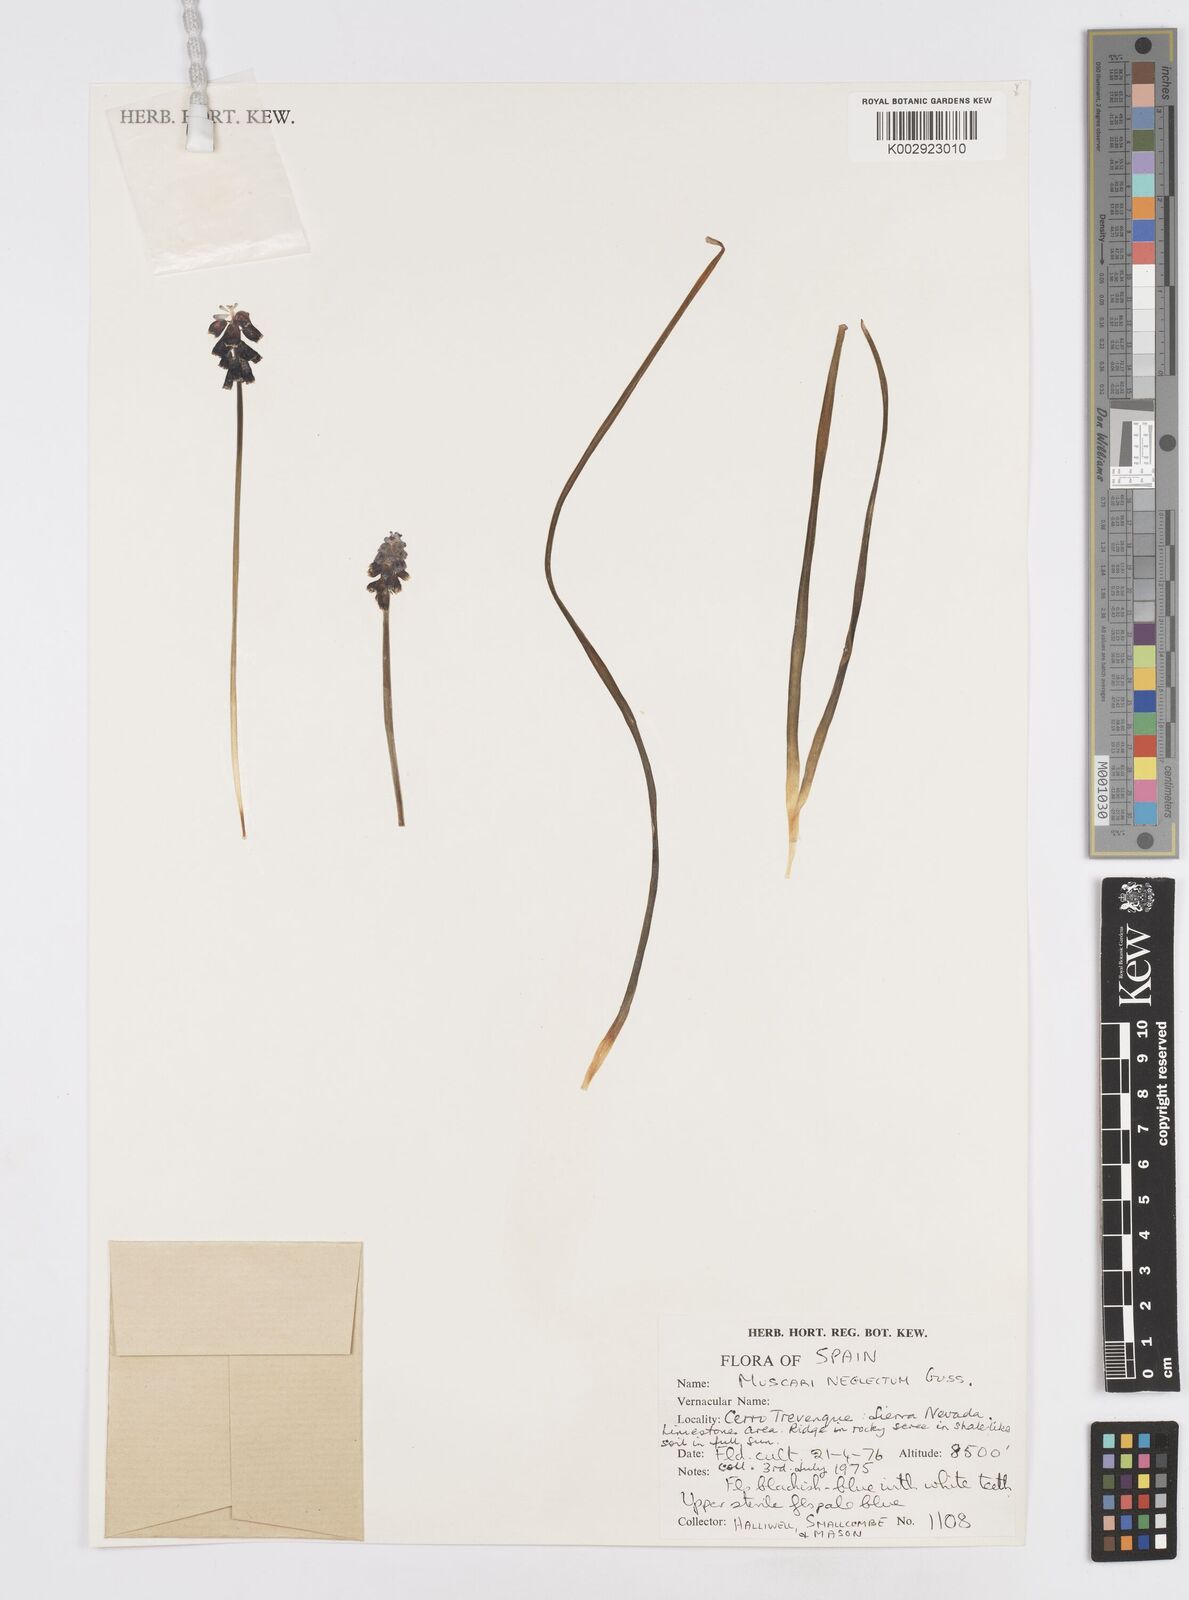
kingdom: Plantae
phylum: Tracheophyta
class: Liliopsida
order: Asparagales
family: Asparagaceae
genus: Muscari
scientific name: Muscari neglectum
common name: Grape-hyacinth
